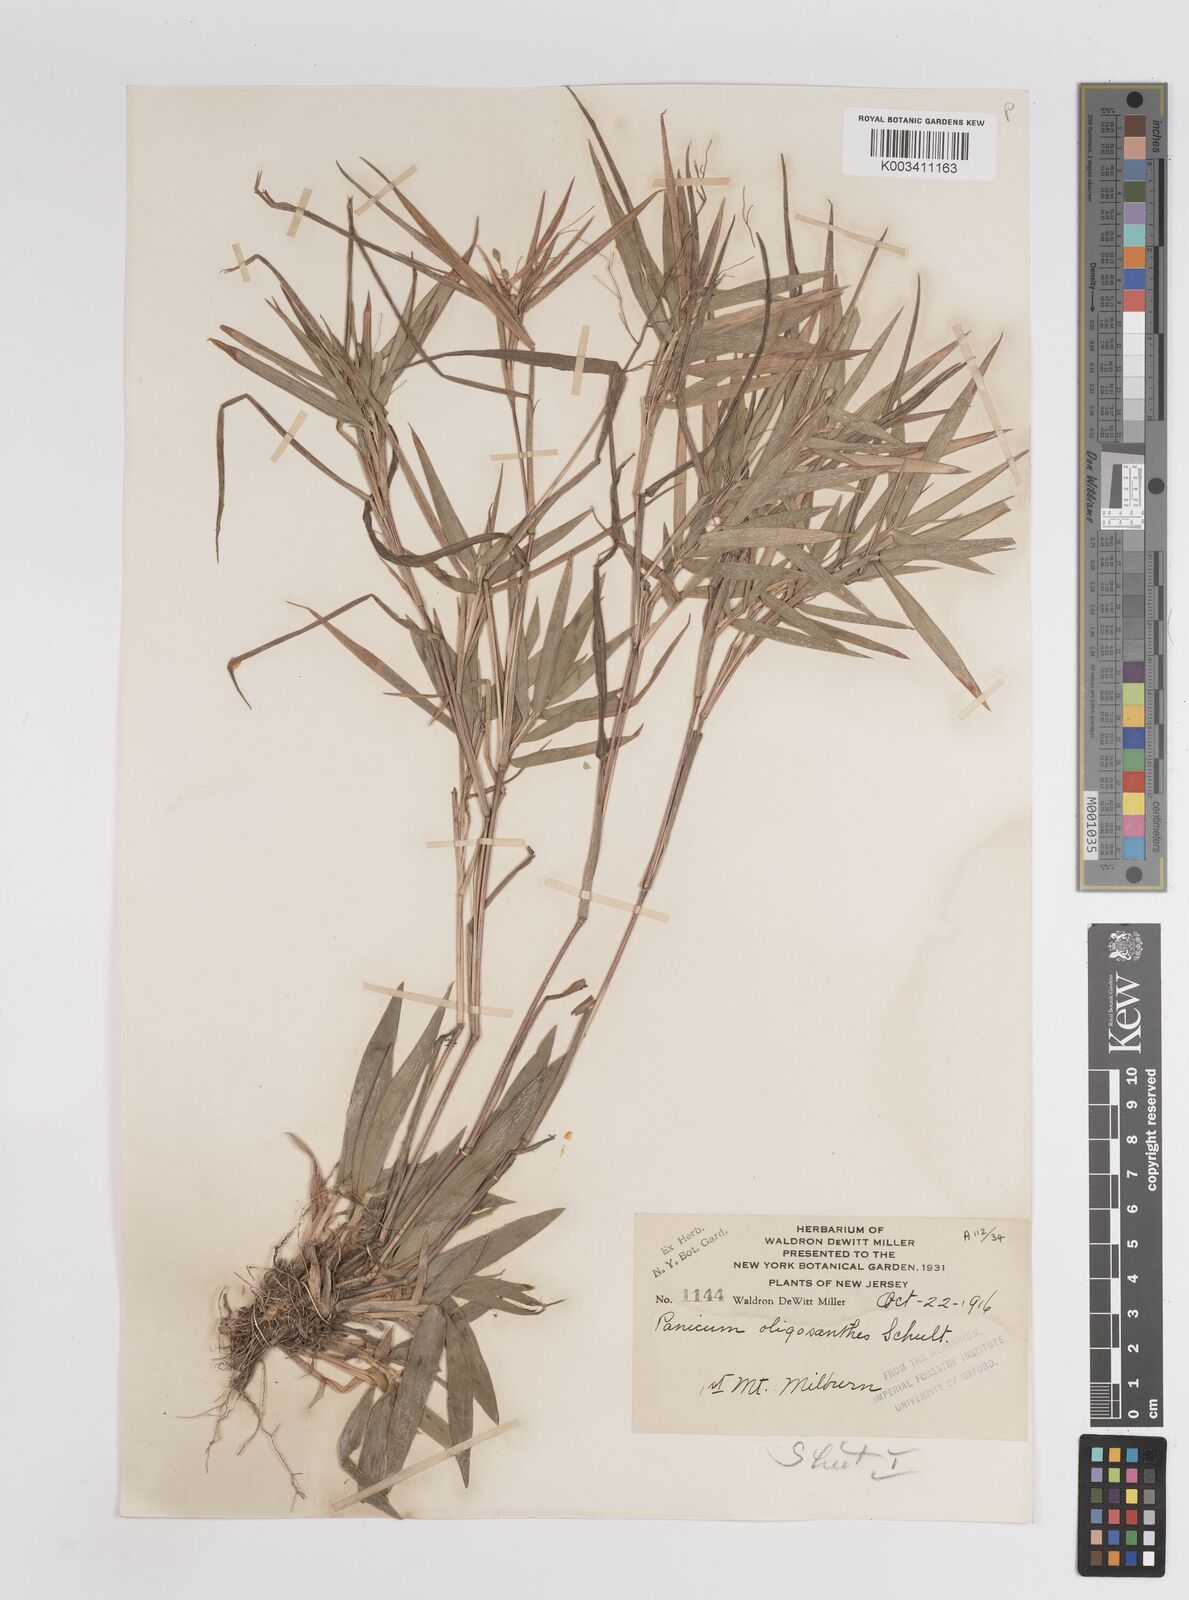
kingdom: Plantae
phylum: Tracheophyta
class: Liliopsida
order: Poales
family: Poaceae
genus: Dichanthelium
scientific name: Dichanthelium oligosanthes
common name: Few-anther obscuregrass
